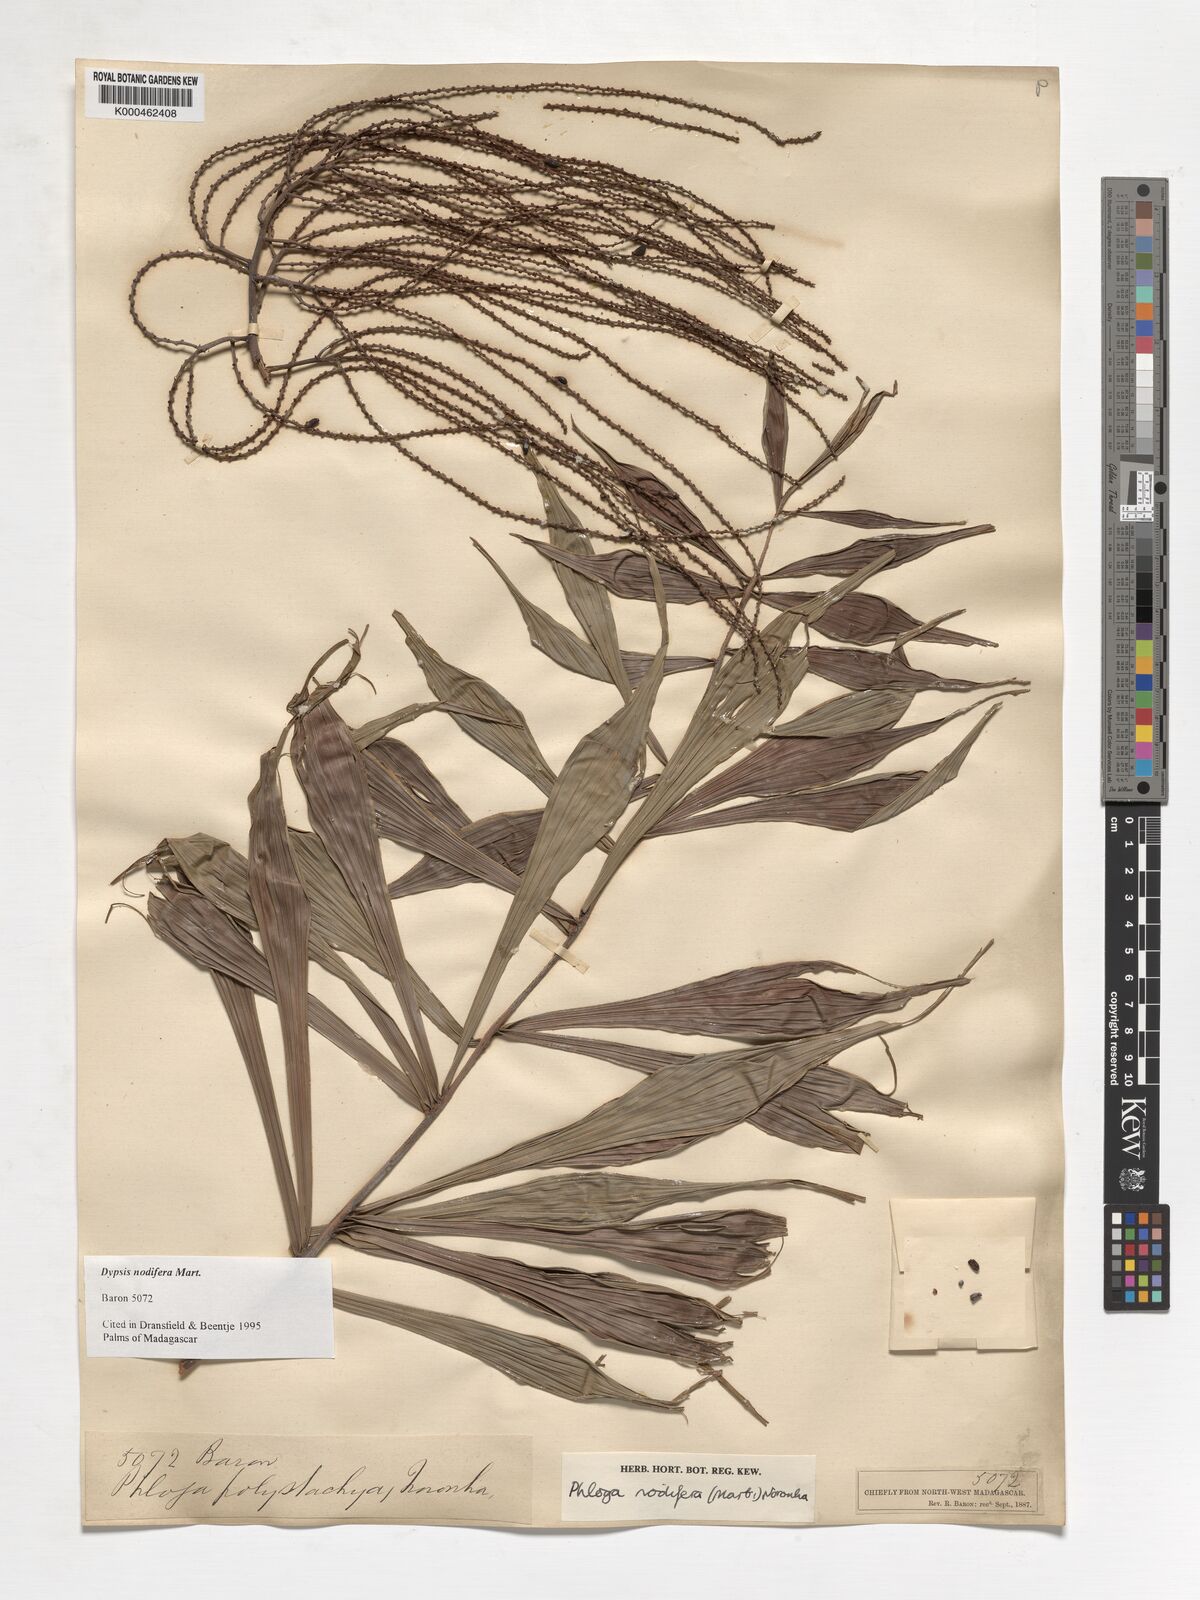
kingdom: Plantae
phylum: Tracheophyta
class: Liliopsida
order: Arecales
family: Arecaceae
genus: Dypsis
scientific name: Dypsis nodifera
